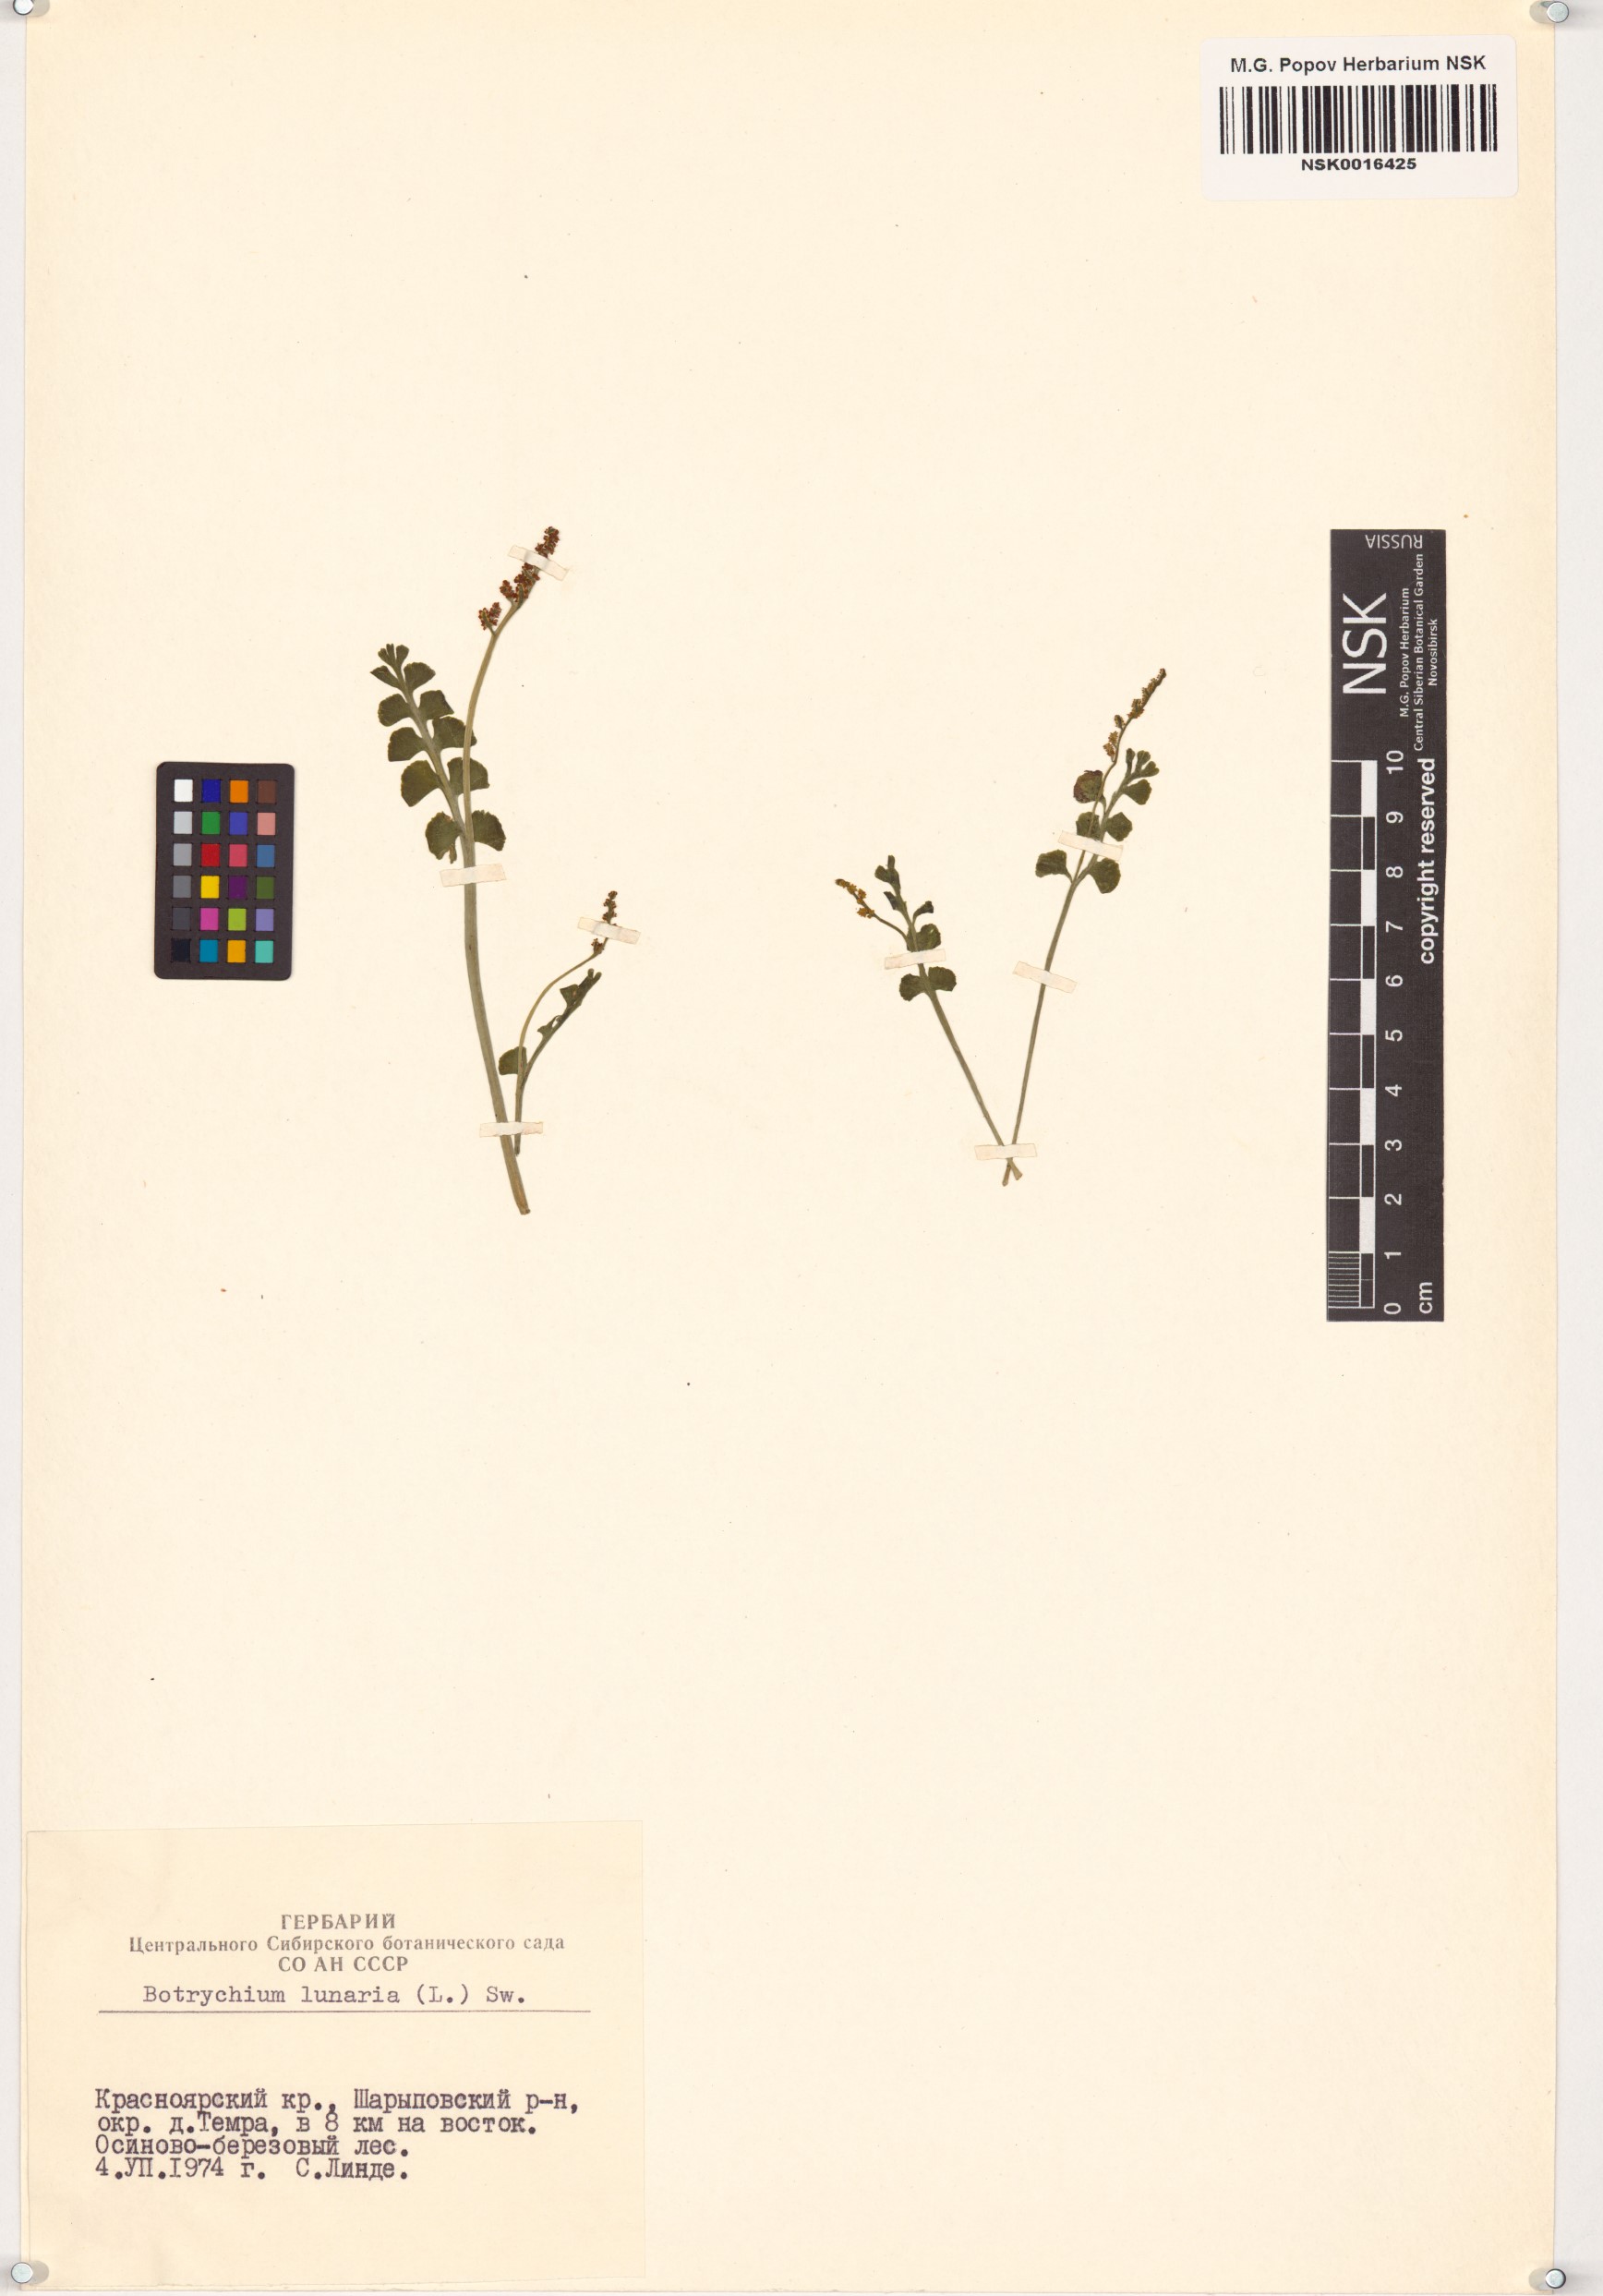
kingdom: Plantae
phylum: Tracheophyta
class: Polypodiopsida
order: Ophioglossales
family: Ophioglossaceae
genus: Botrychium
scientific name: Botrychium lunaria
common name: Moonwort
